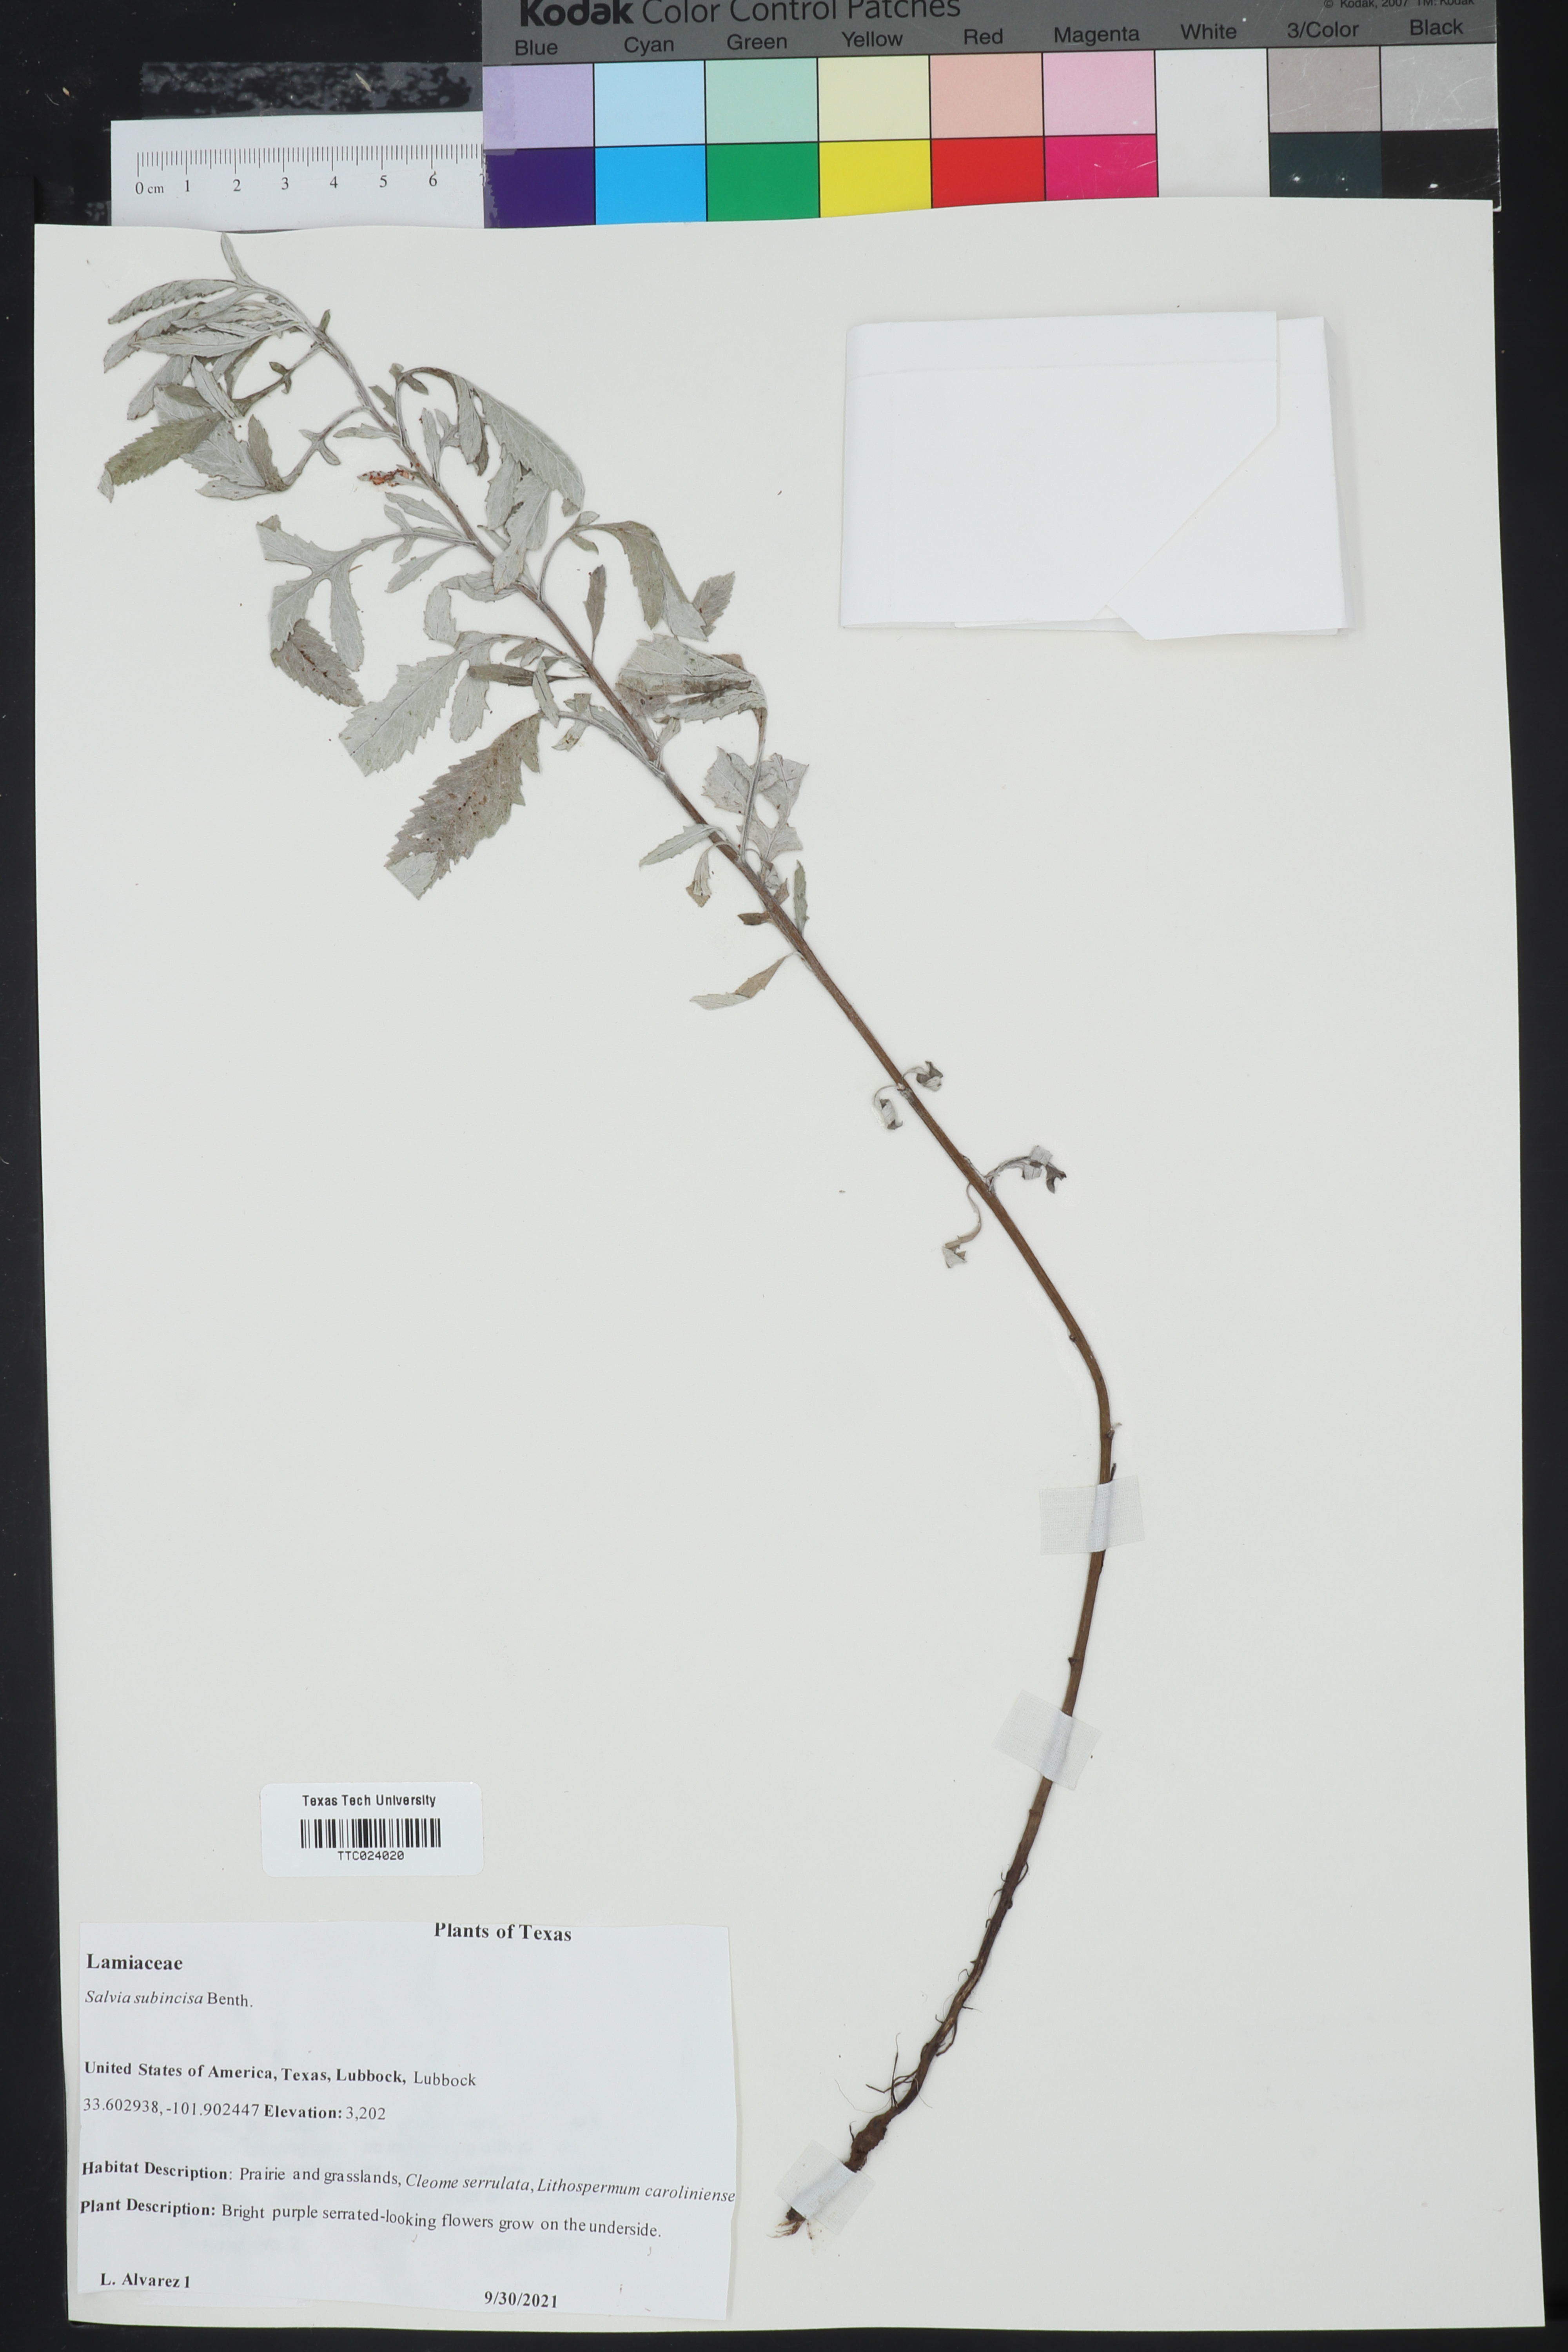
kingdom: Plantae
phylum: Tracheophyta
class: Magnoliopsida
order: Lamiales
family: Lamiaceae
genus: Salvia
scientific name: Salvia subincisa
